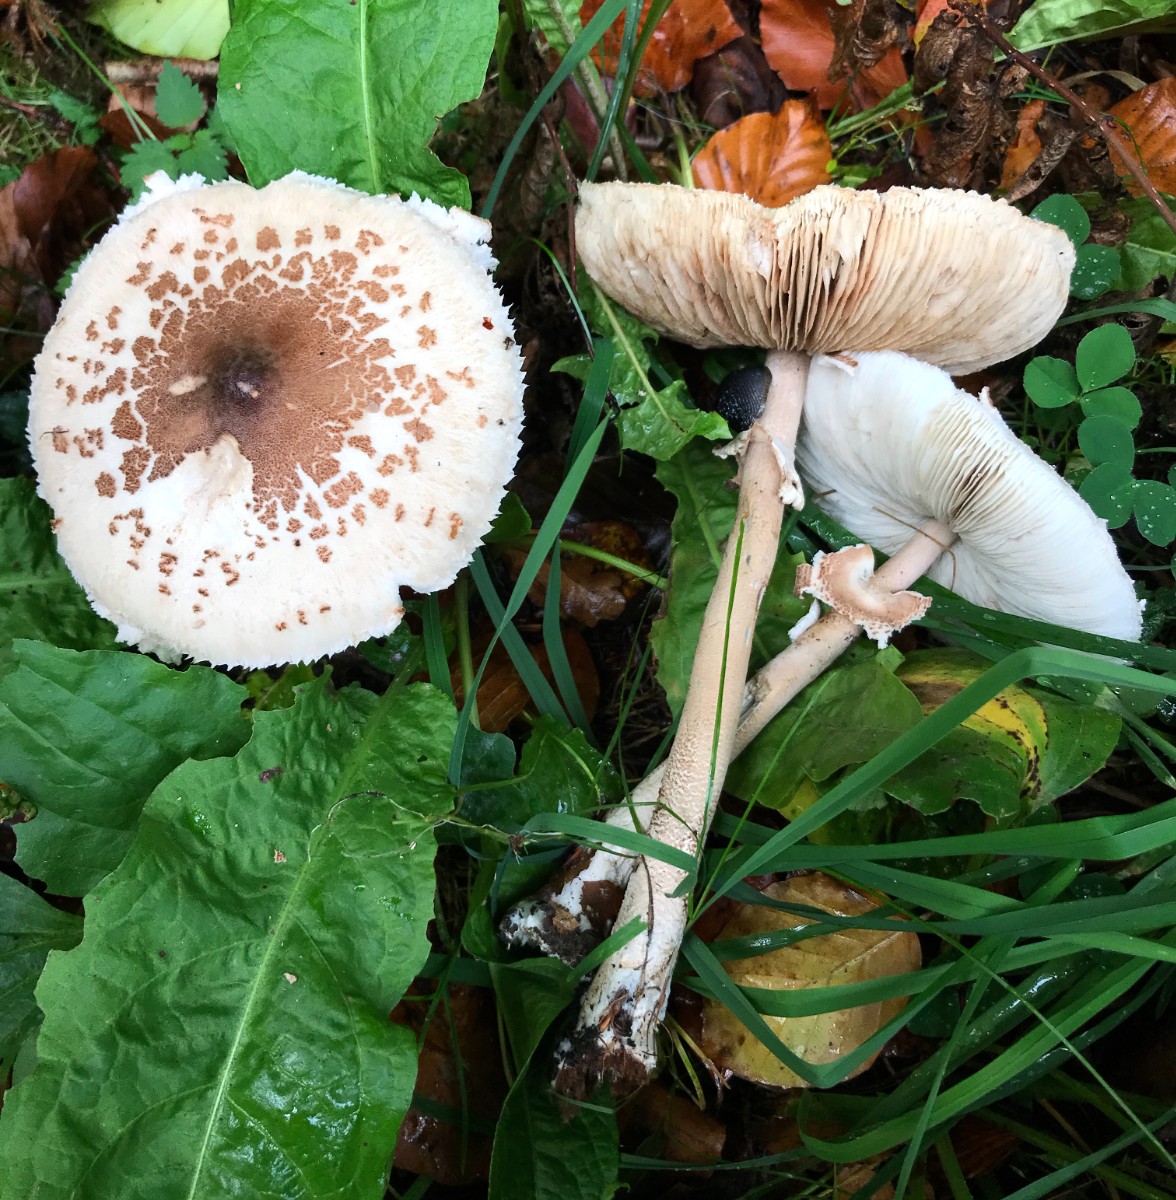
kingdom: Fungi
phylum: Basidiomycota
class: Agaricomycetes
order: Agaricales
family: Agaricaceae
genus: Macrolepiota
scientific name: Macrolepiota mastoidea
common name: puklet kæmpeparasolhat
